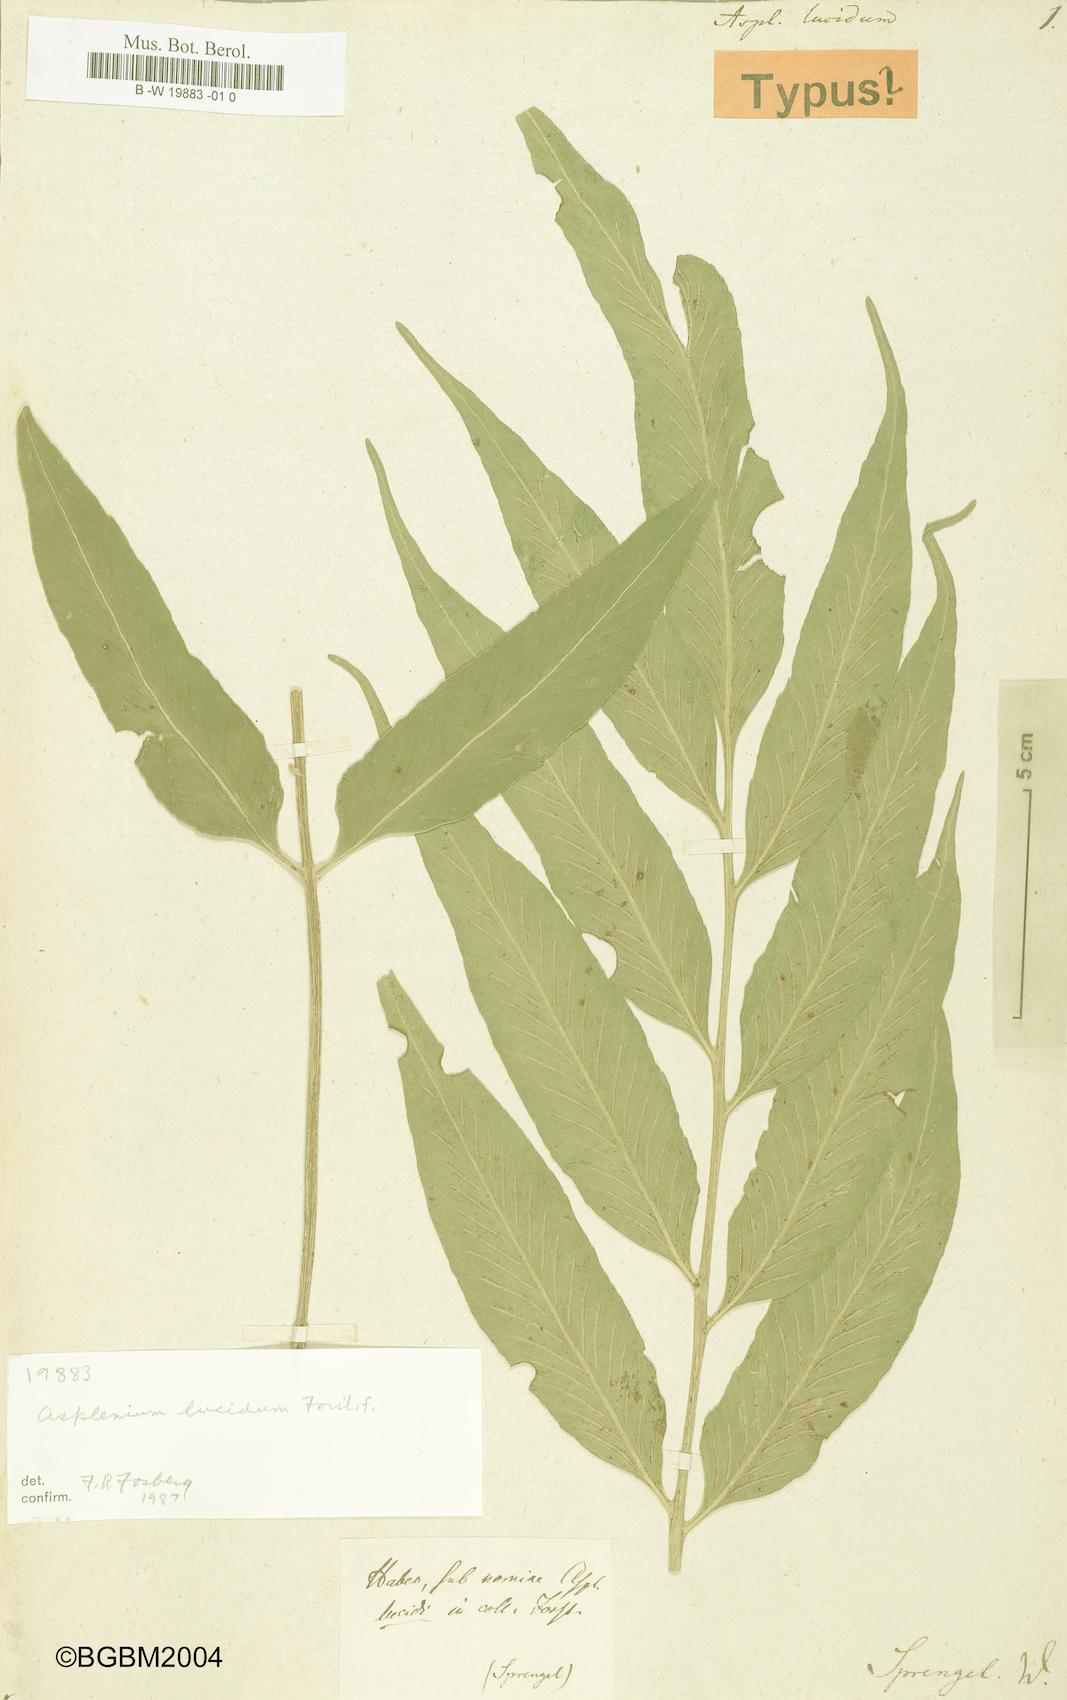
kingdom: Plantae
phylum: Tracheophyta
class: Polypodiopsida
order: Polypodiales
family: Aspleniaceae
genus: Asplenium
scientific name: Asplenium oblongifolium
